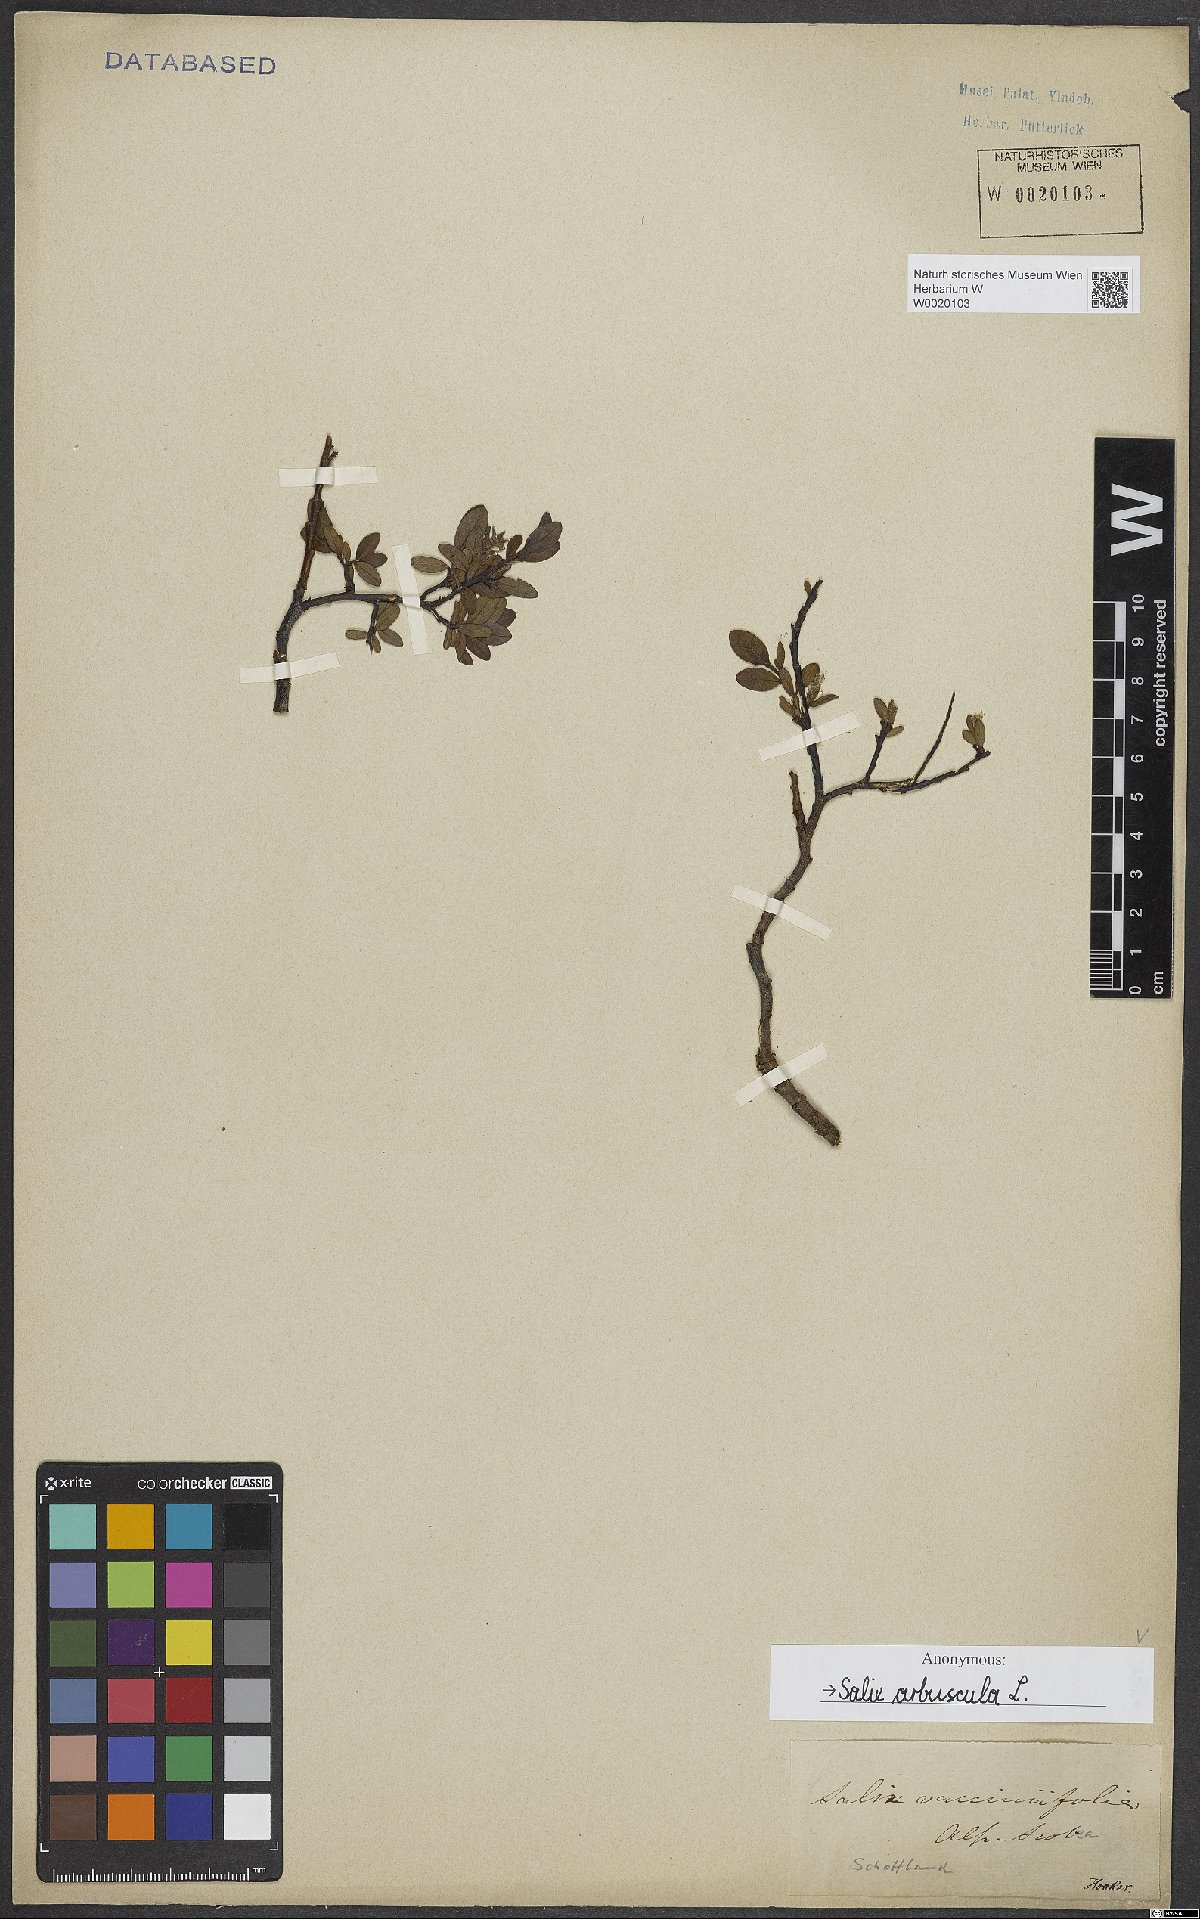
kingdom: Plantae
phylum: Tracheophyta
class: Magnoliopsida
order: Malpighiales
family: Salicaceae
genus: Salix
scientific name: Salix arbuscula
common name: Mountain willow
